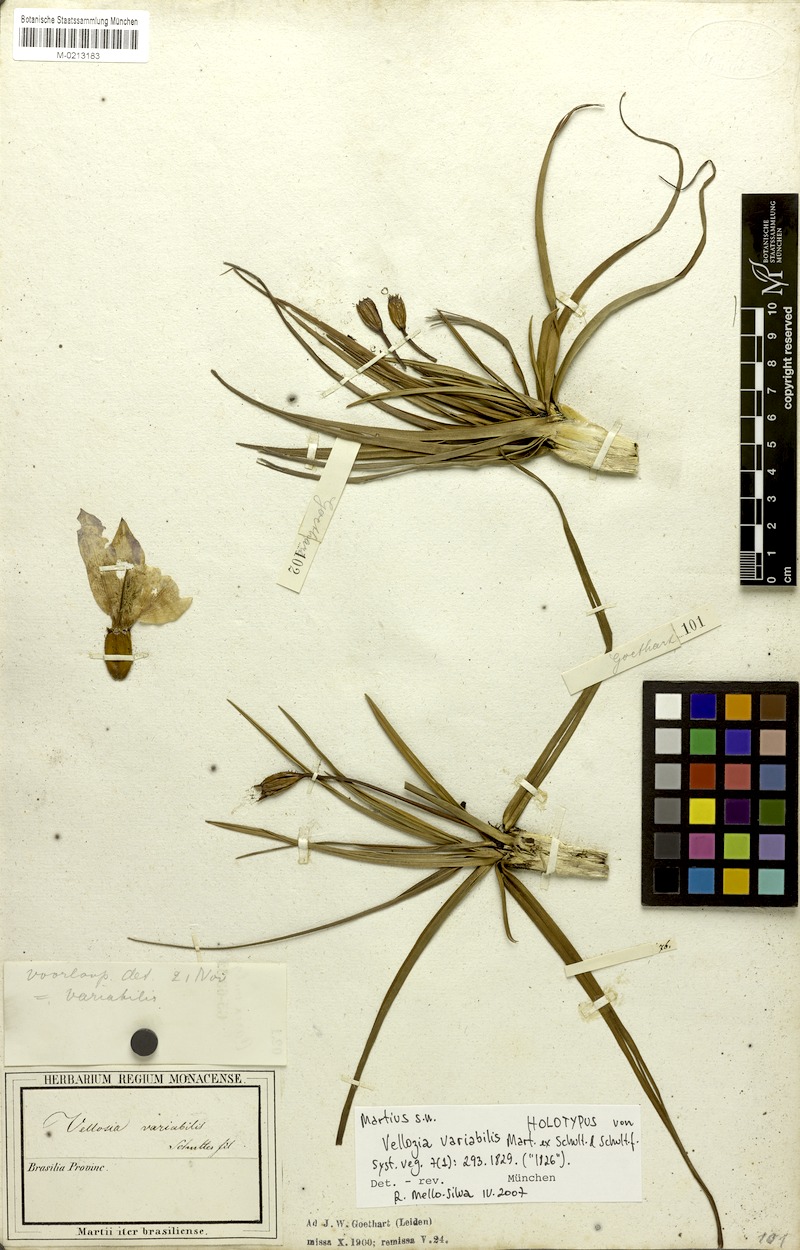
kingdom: Plantae
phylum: Tracheophyta
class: Liliopsida
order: Pandanales
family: Velloziaceae
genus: Vellozia
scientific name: Vellozia variabilis
